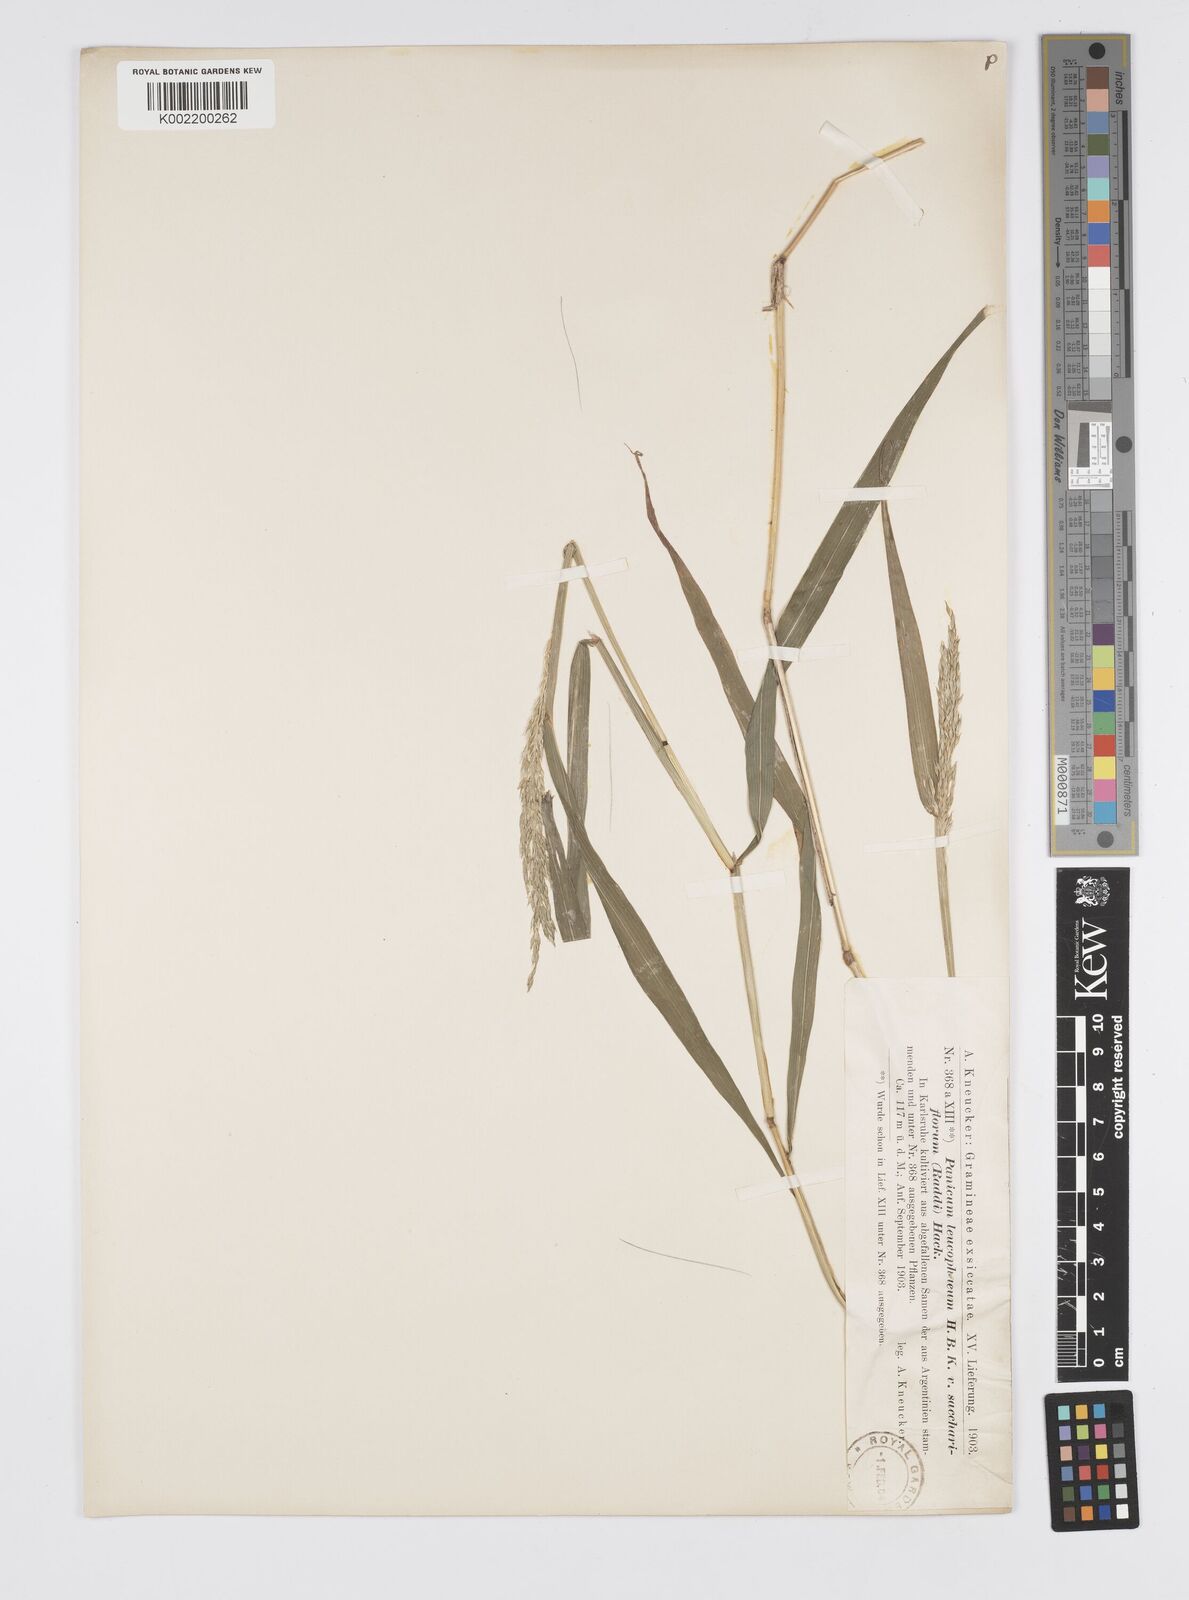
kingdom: Plantae
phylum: Tracheophyta
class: Liliopsida
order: Poales
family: Poaceae
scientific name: Poaceae
